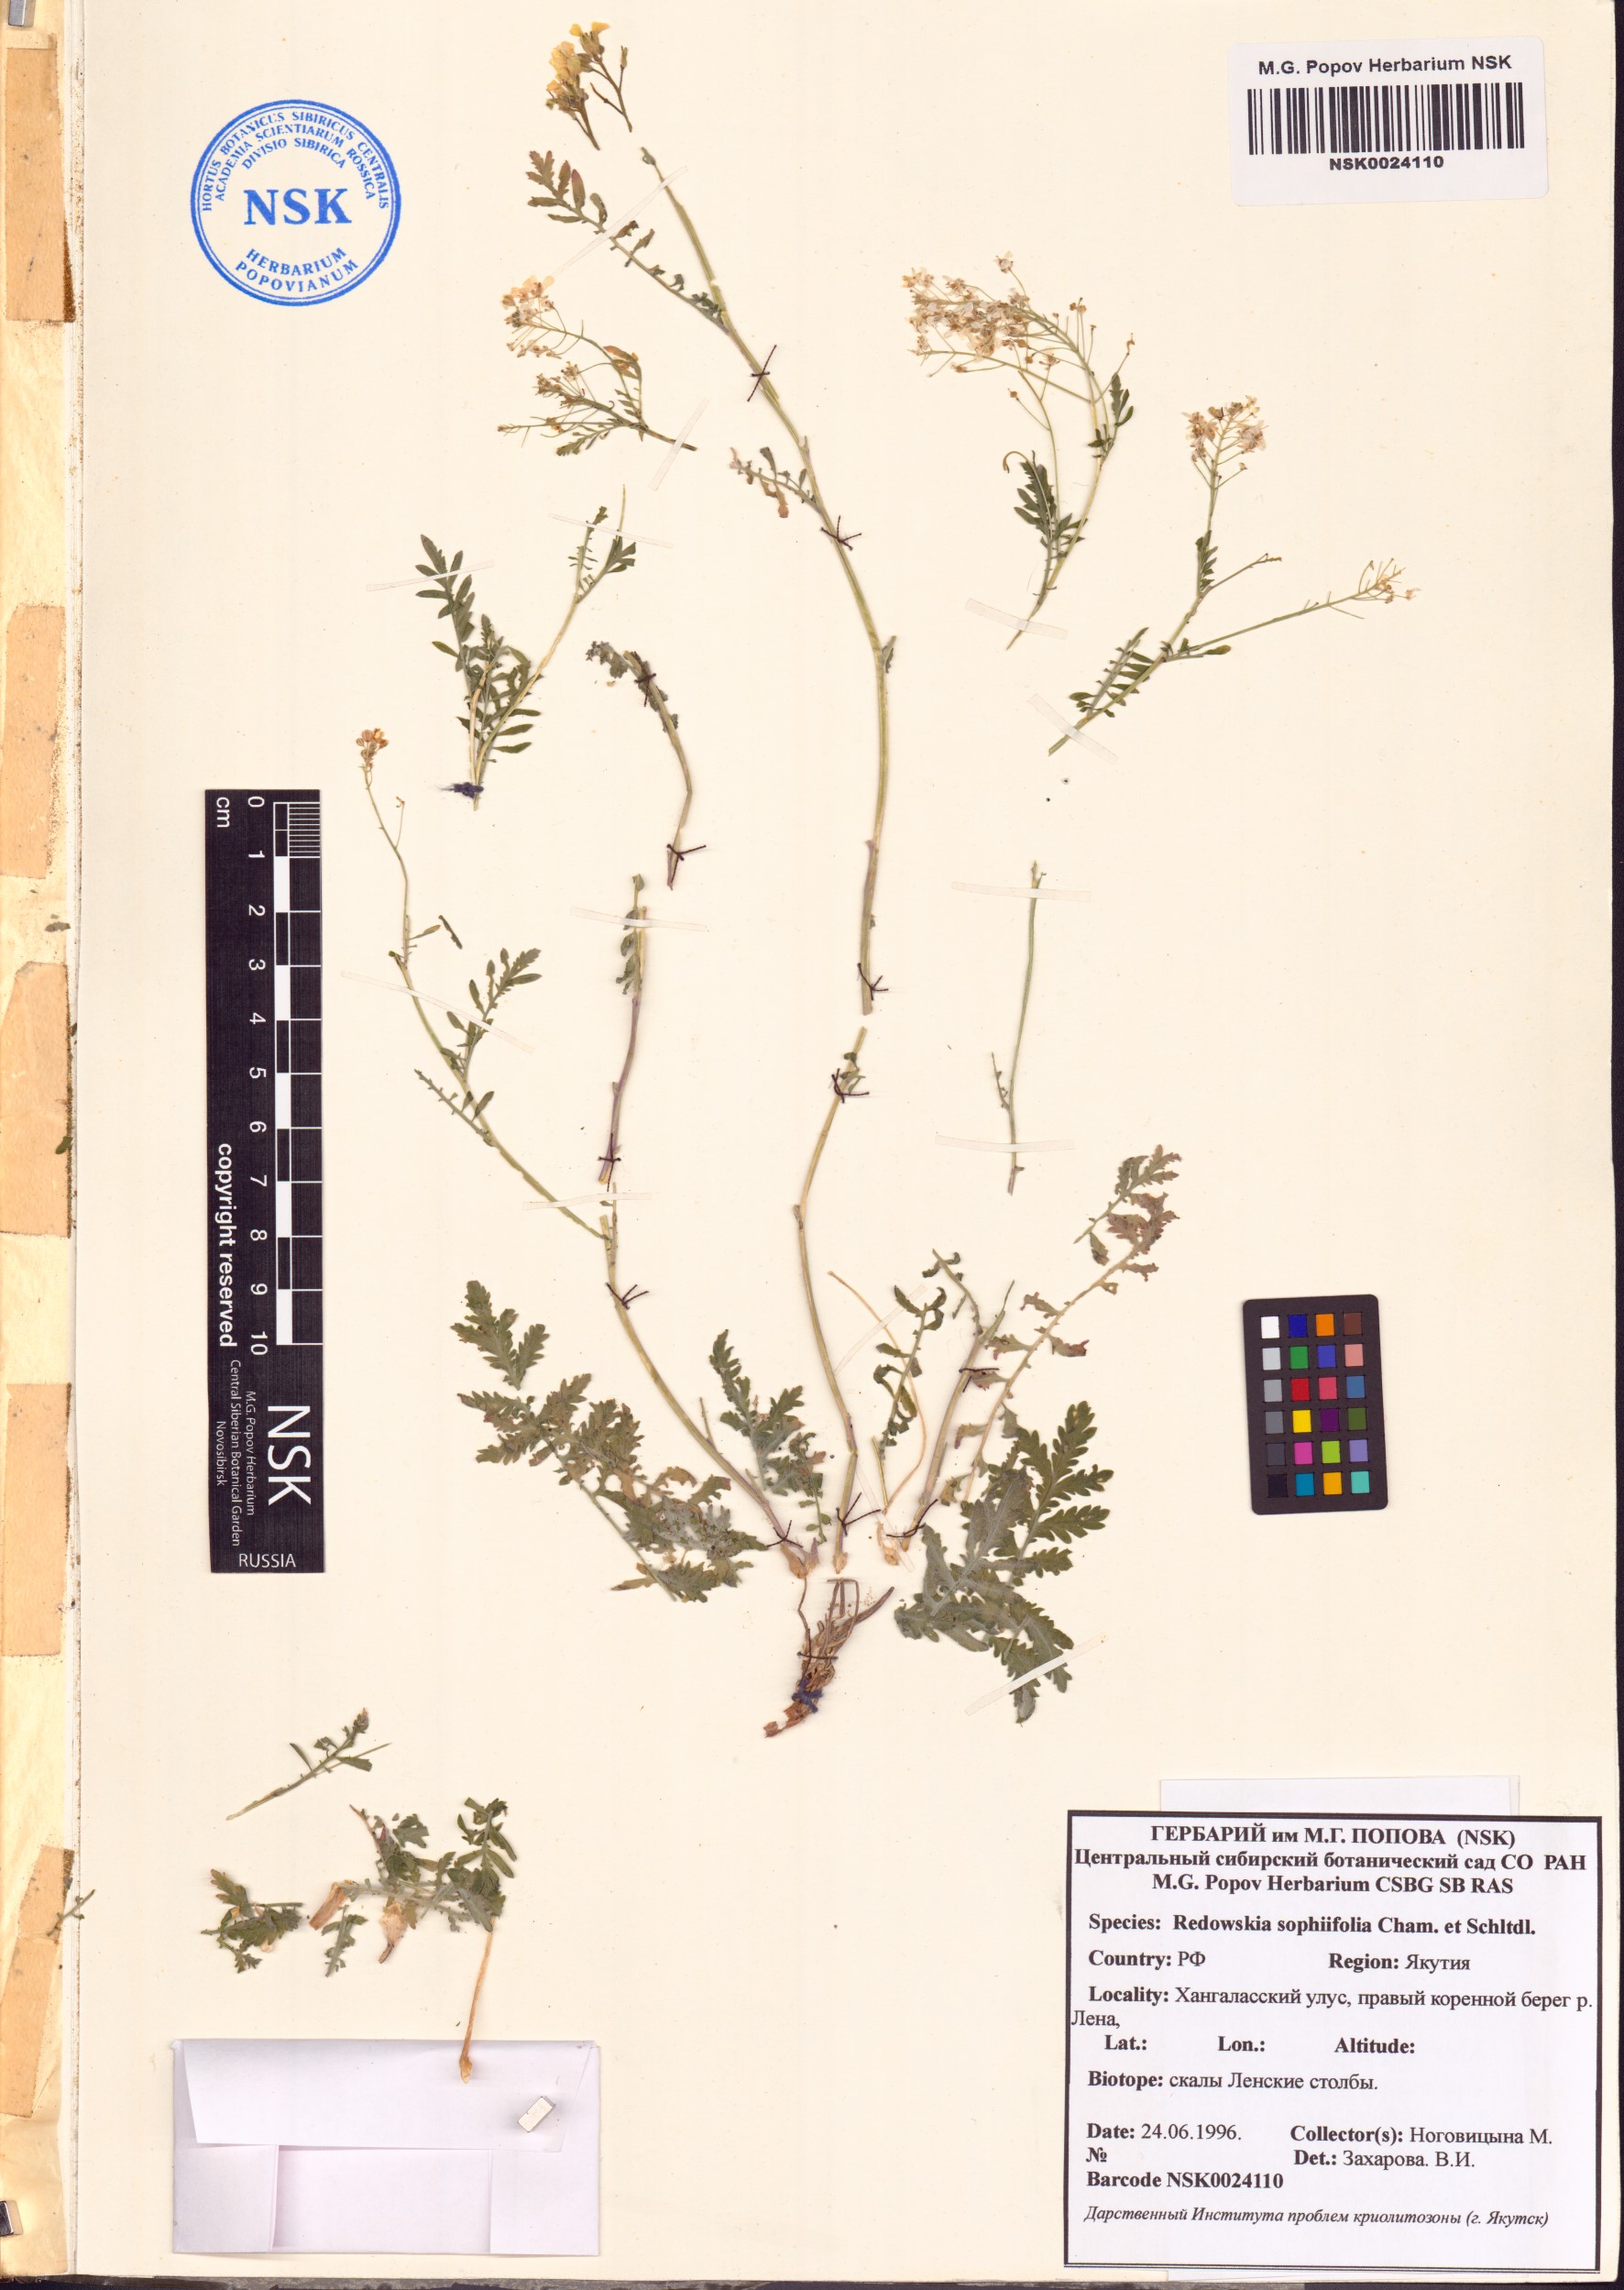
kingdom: Plantae
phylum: Tracheophyta
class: Magnoliopsida
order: Brassicales
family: Brassicaceae
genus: Smelowskia
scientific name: Smelowskia sophiifolia
